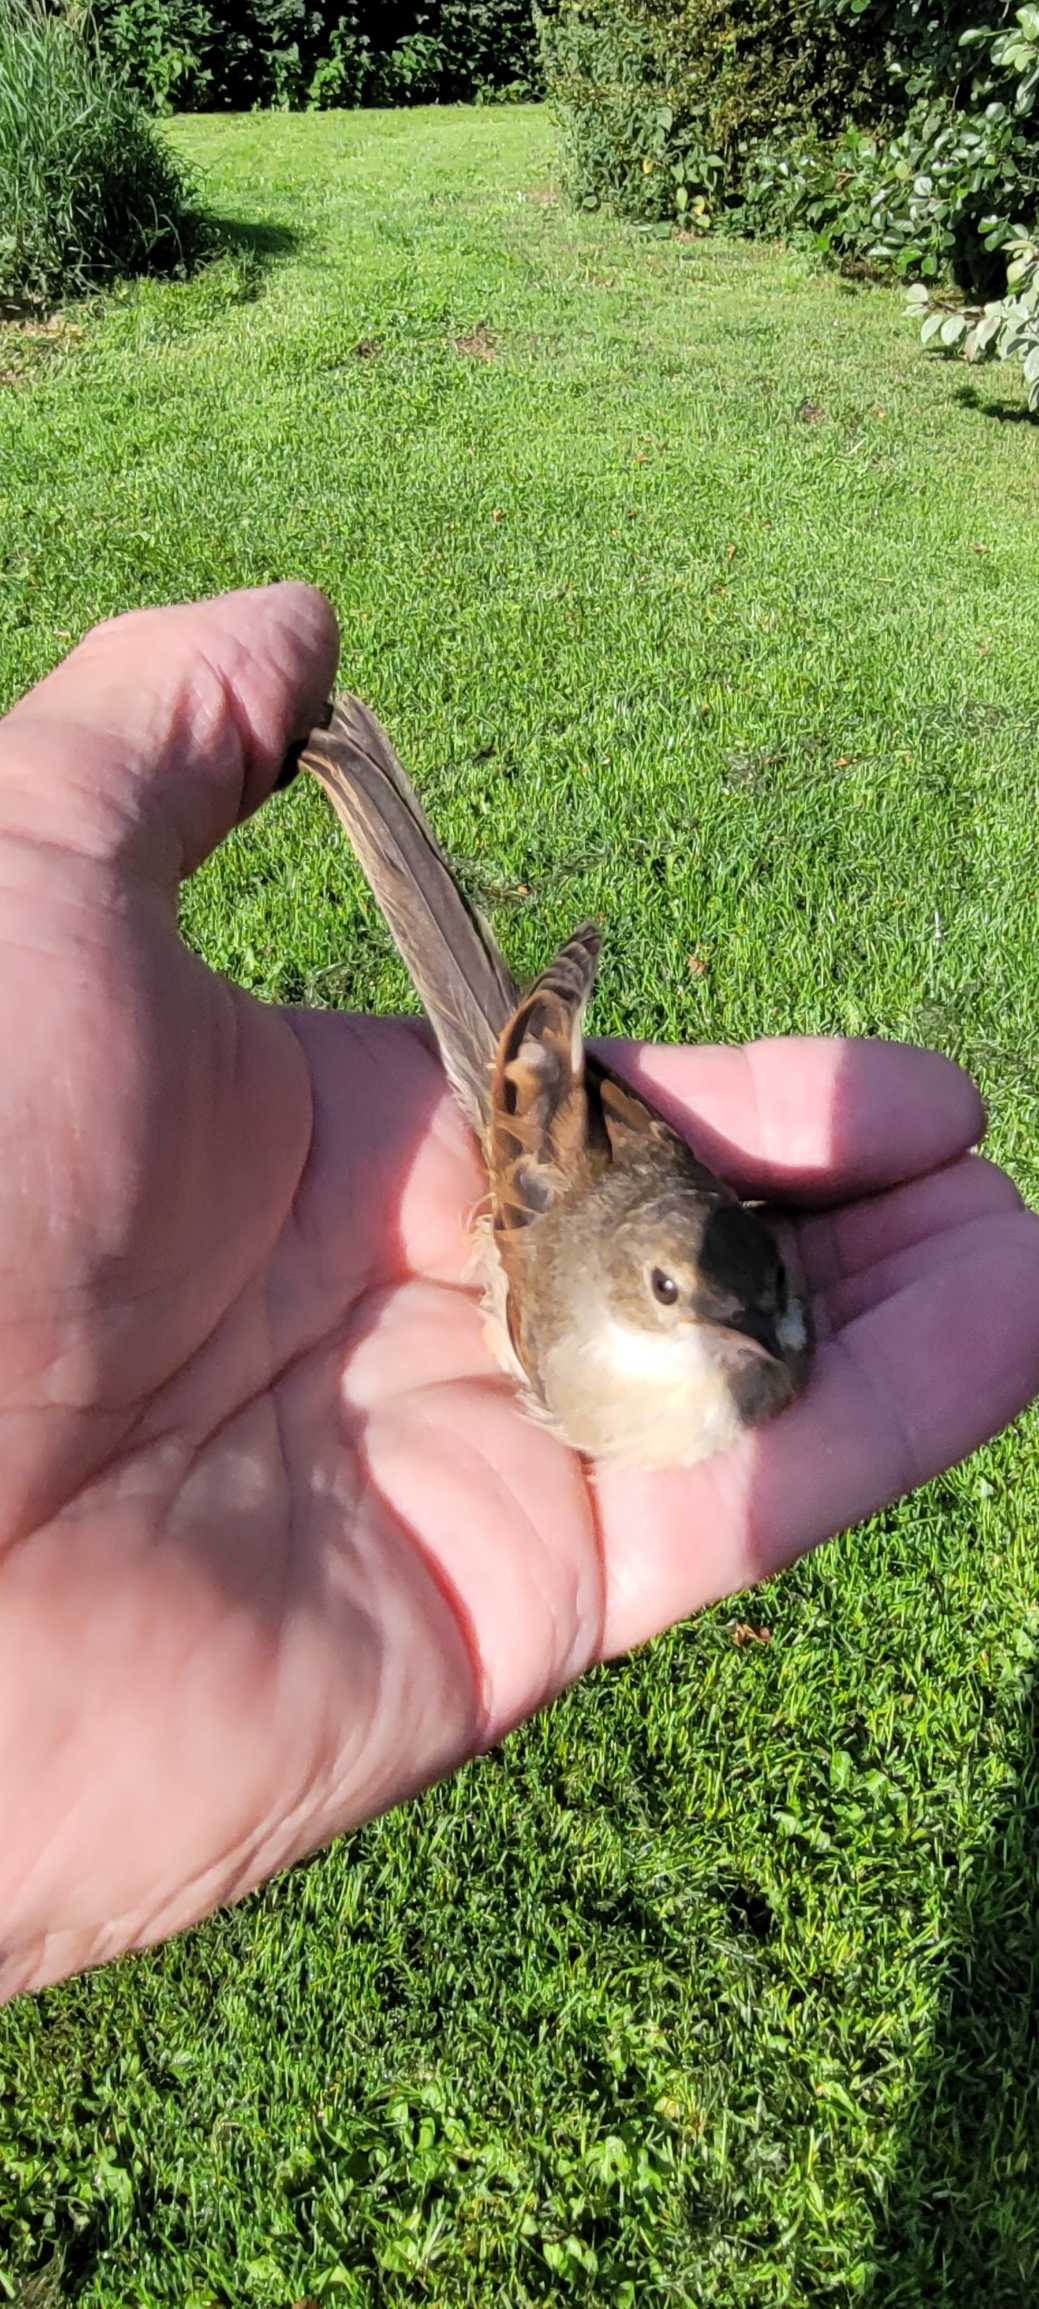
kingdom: Animalia
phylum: Chordata
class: Aves
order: Passeriformes
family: Sylviidae
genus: Sylvia
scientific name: Sylvia communis
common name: Tornsanger
